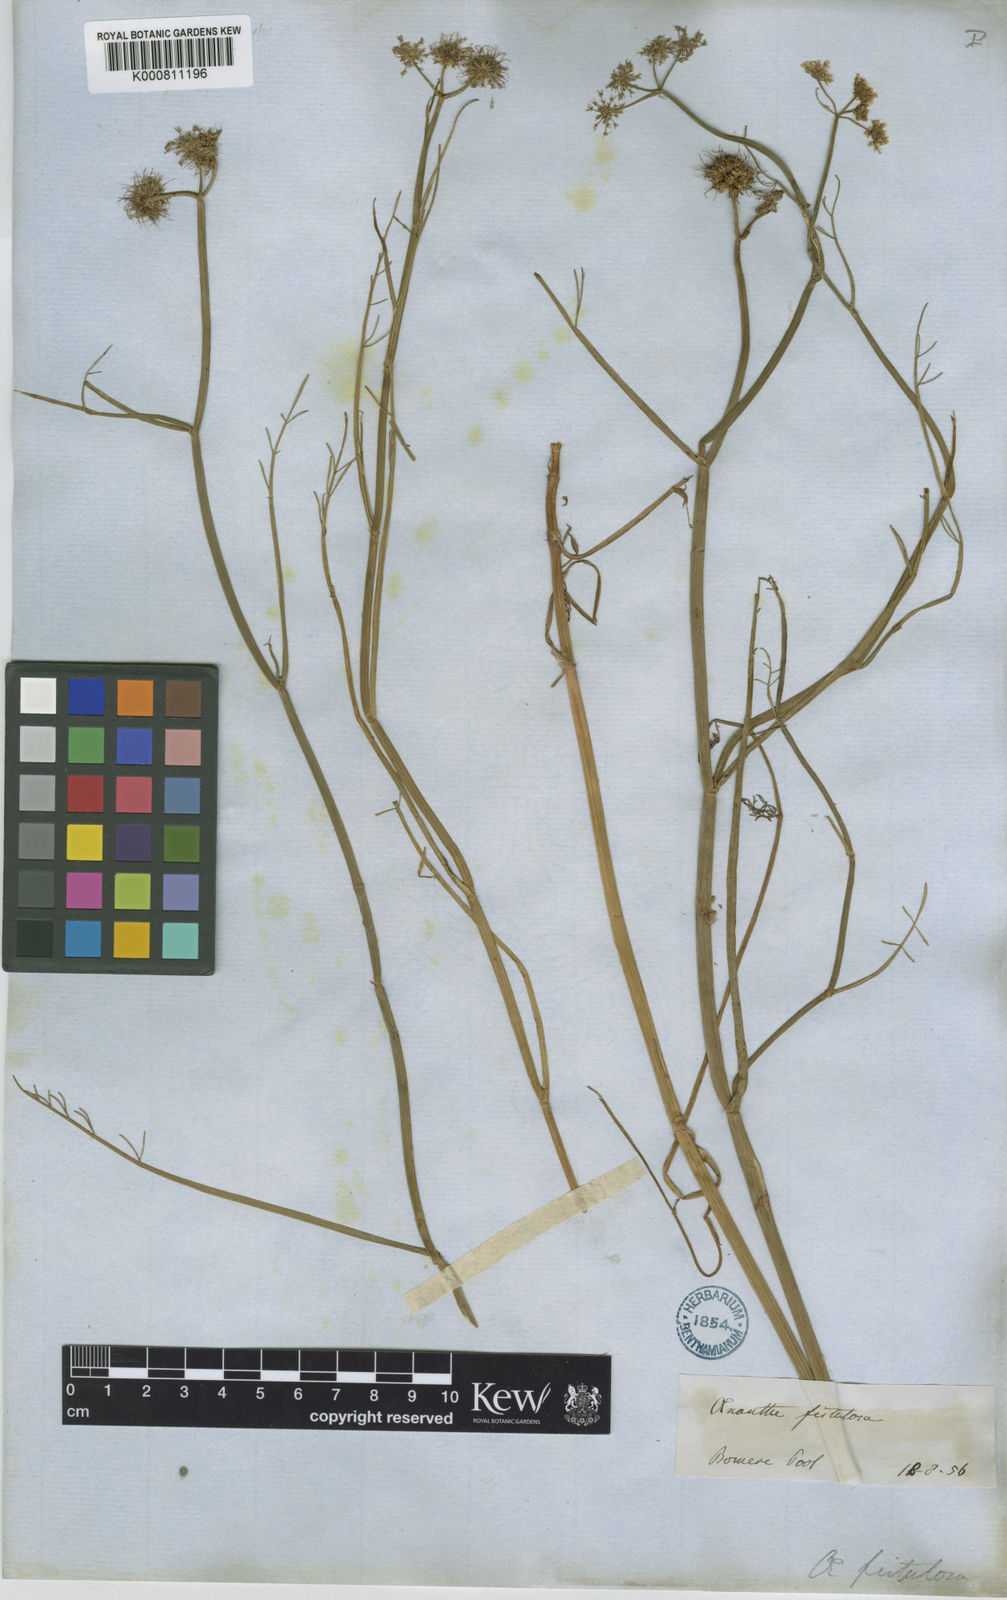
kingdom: Plantae
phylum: Tracheophyta
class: Magnoliopsida
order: Apiales
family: Apiaceae
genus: Oenanthe
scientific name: Oenanthe fistulosa
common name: Tubular water-dropwort
